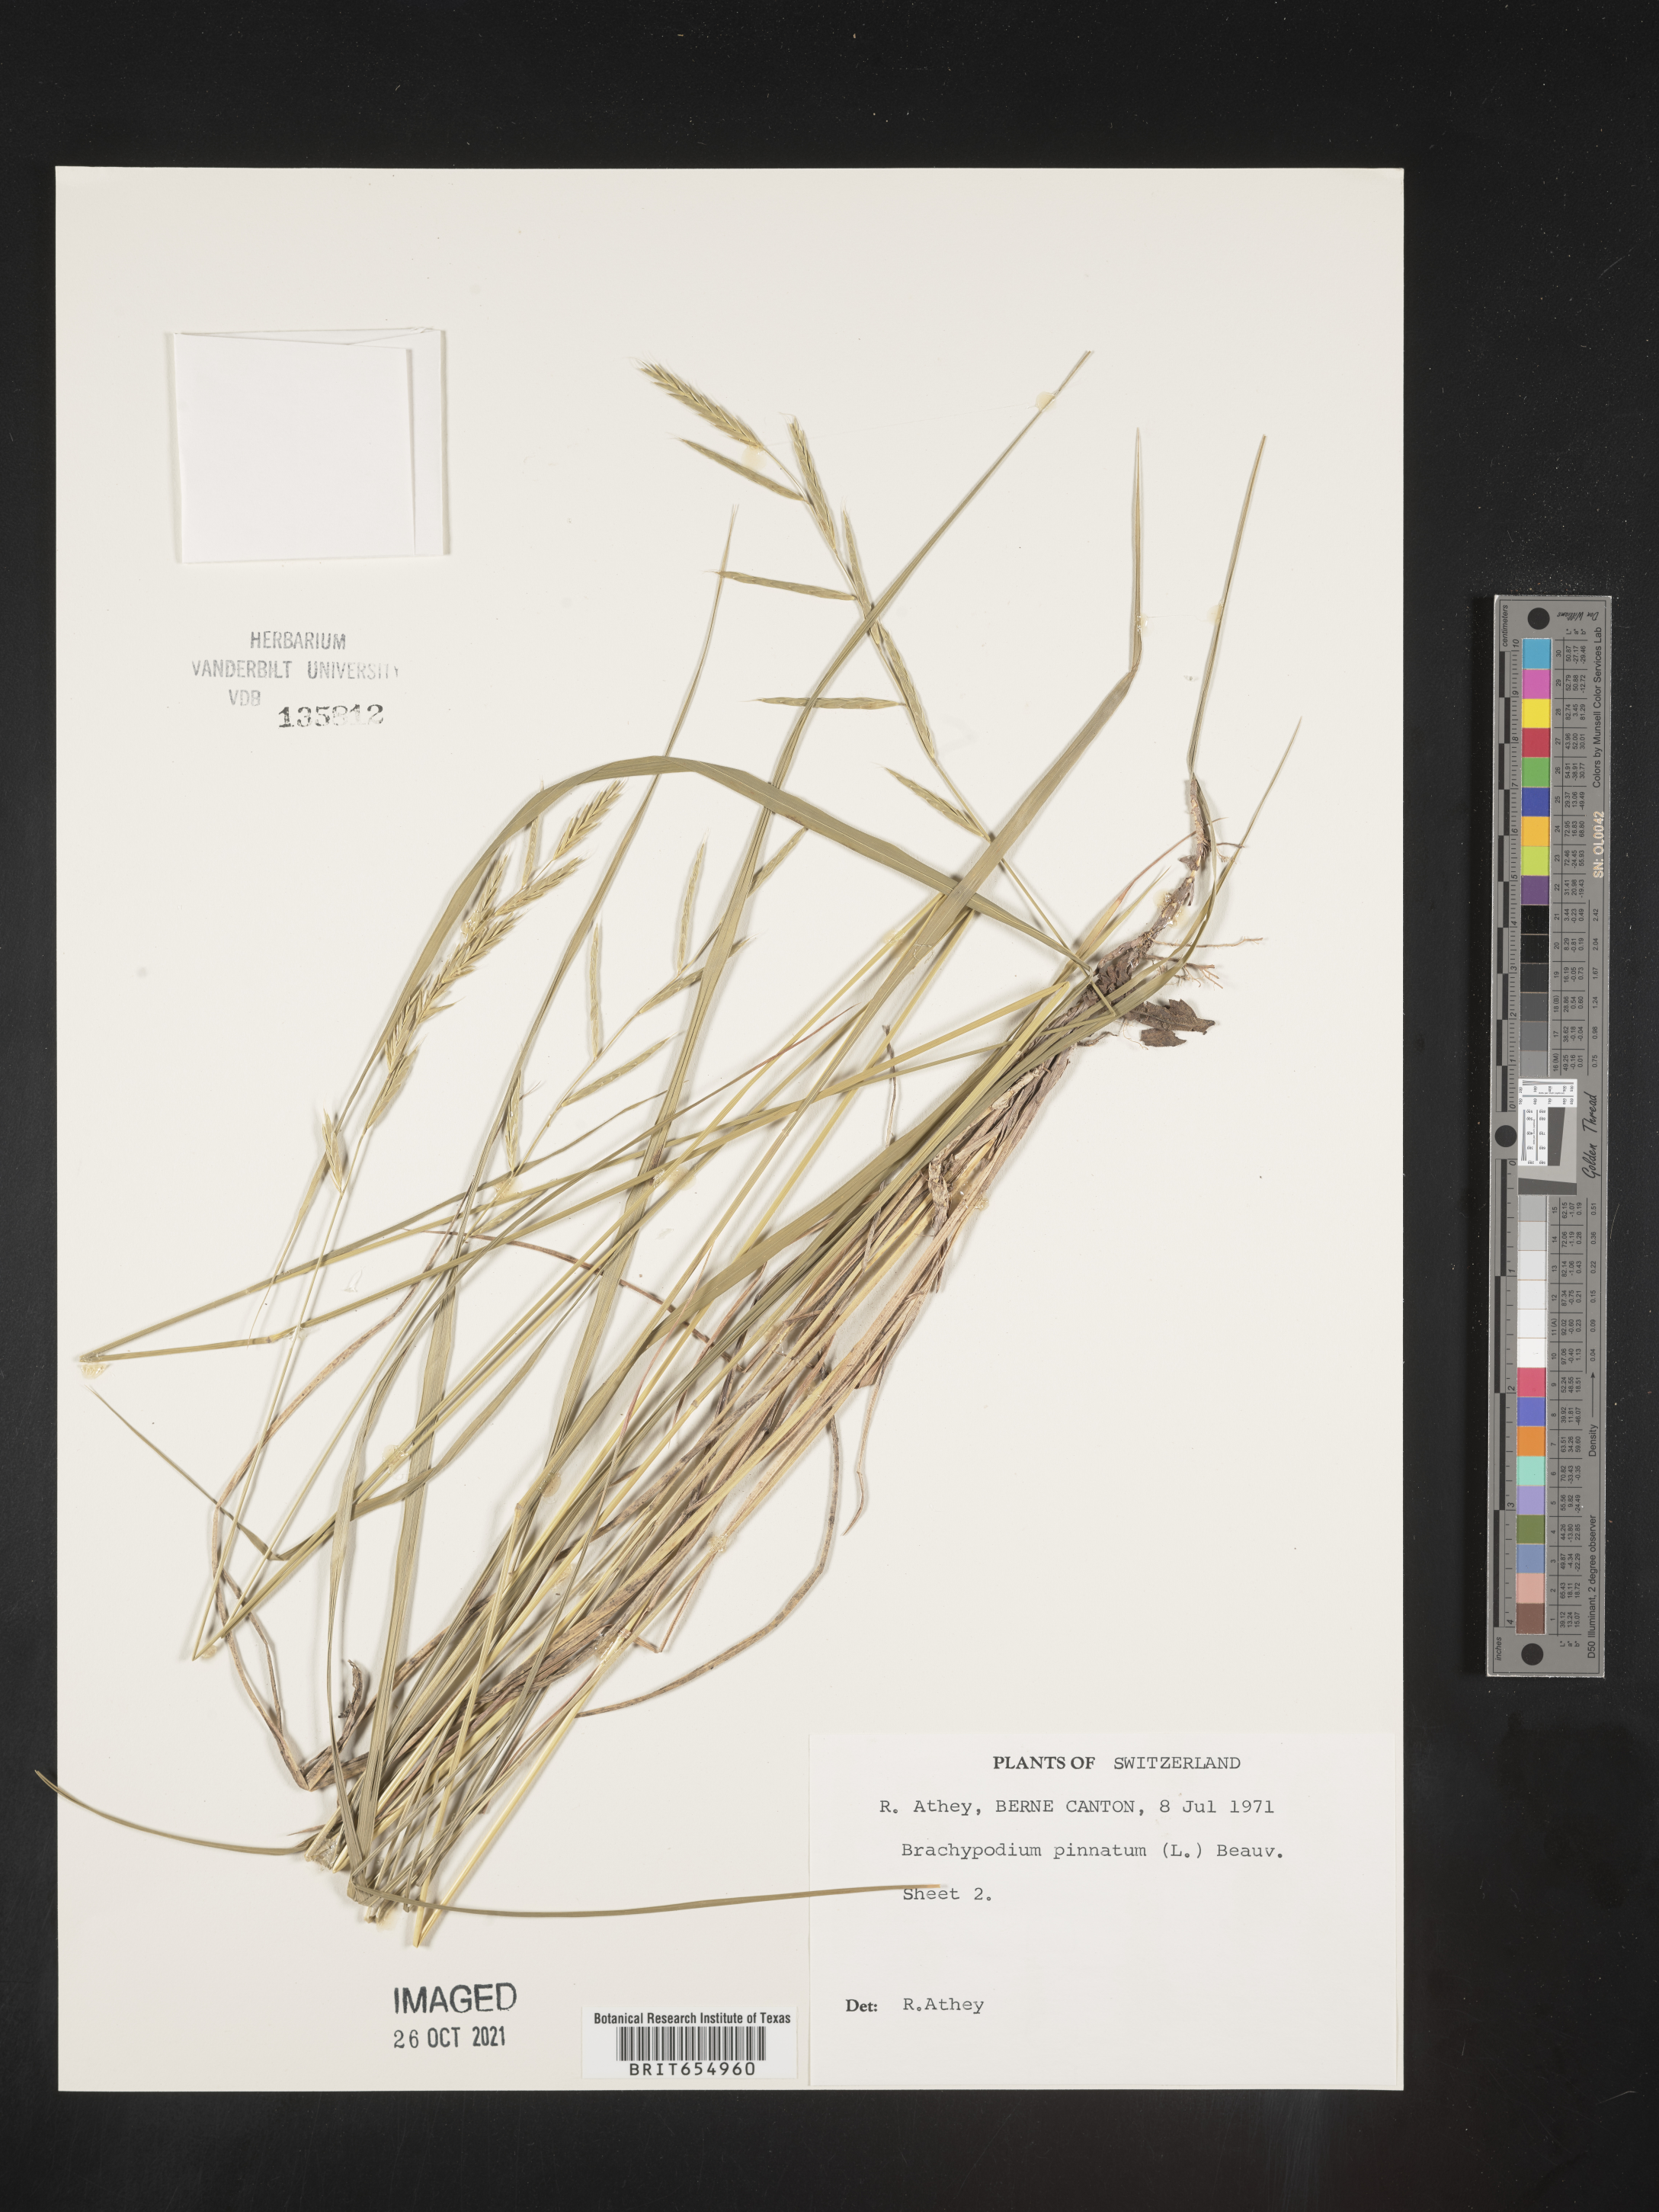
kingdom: Plantae
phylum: Tracheophyta
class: Liliopsida
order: Poales
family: Poaceae
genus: Brachypodium
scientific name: Brachypodium
